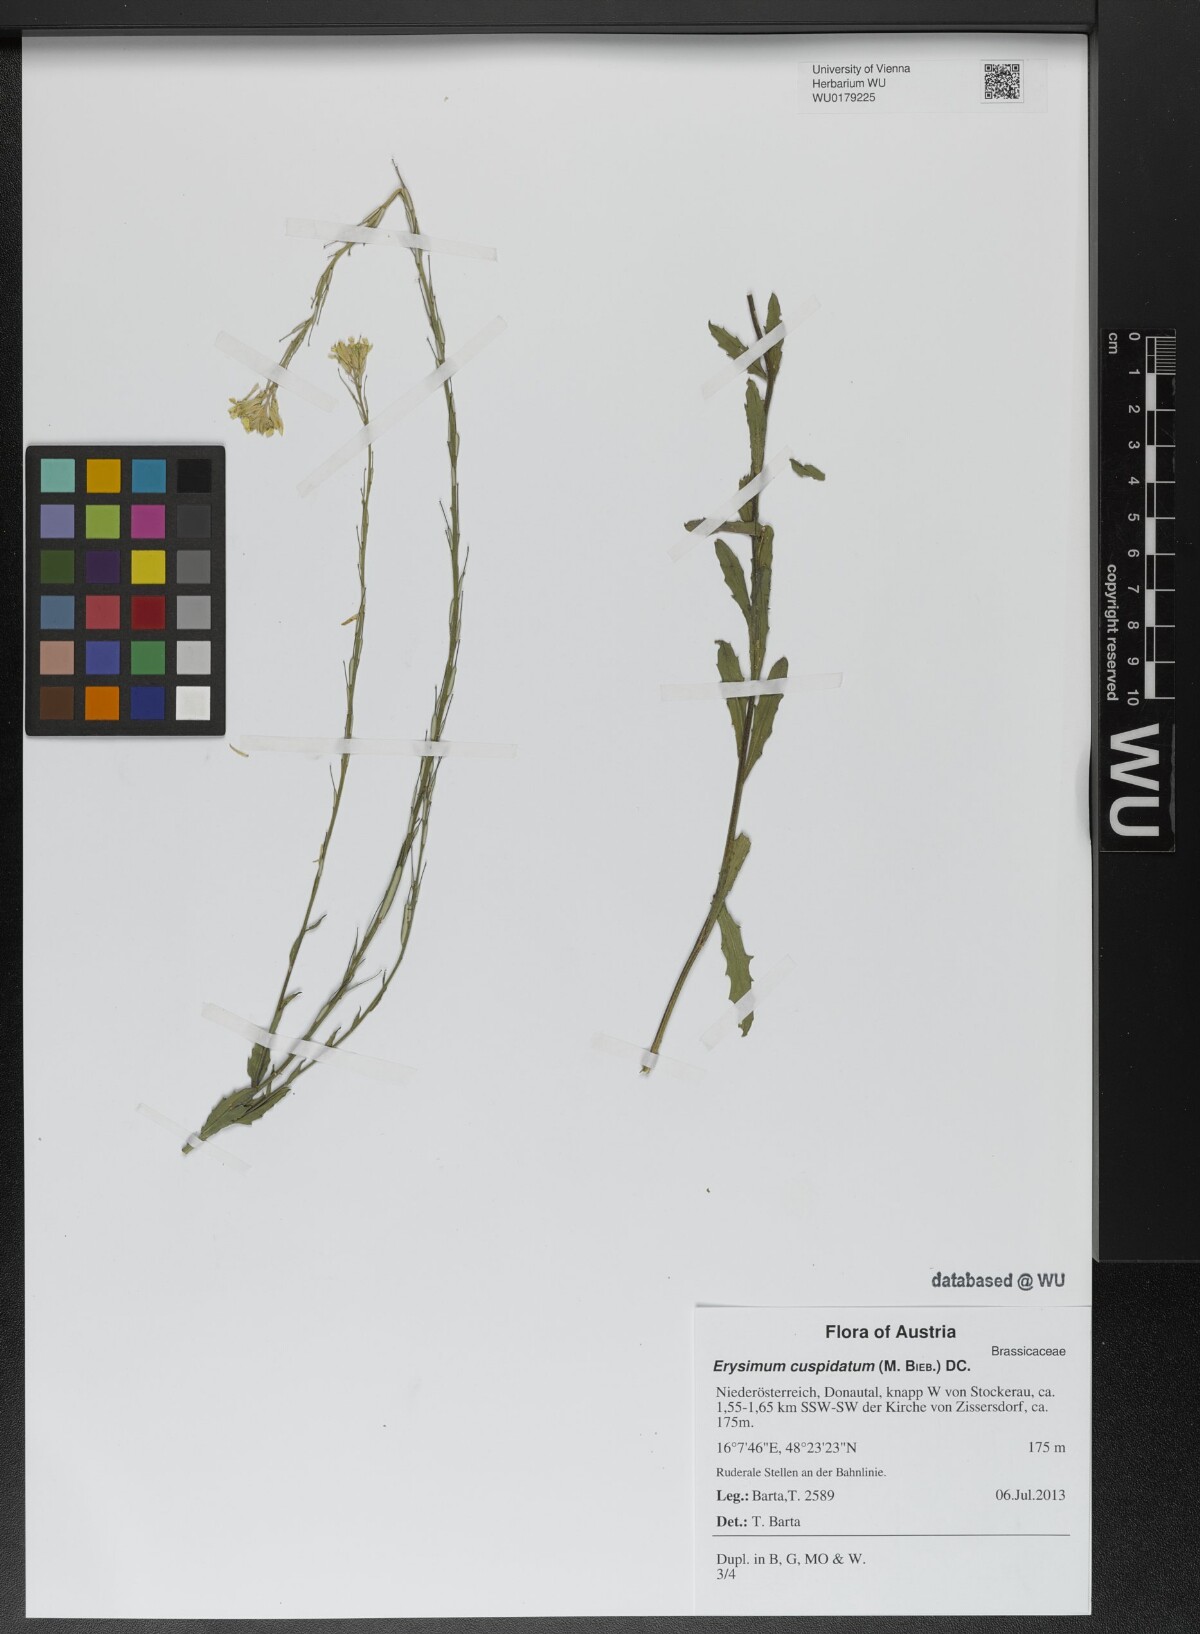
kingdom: Plantae
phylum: Tracheophyta
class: Magnoliopsida
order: Brassicales
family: Brassicaceae
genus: Erysimum
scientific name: Erysimum cuspidatum
